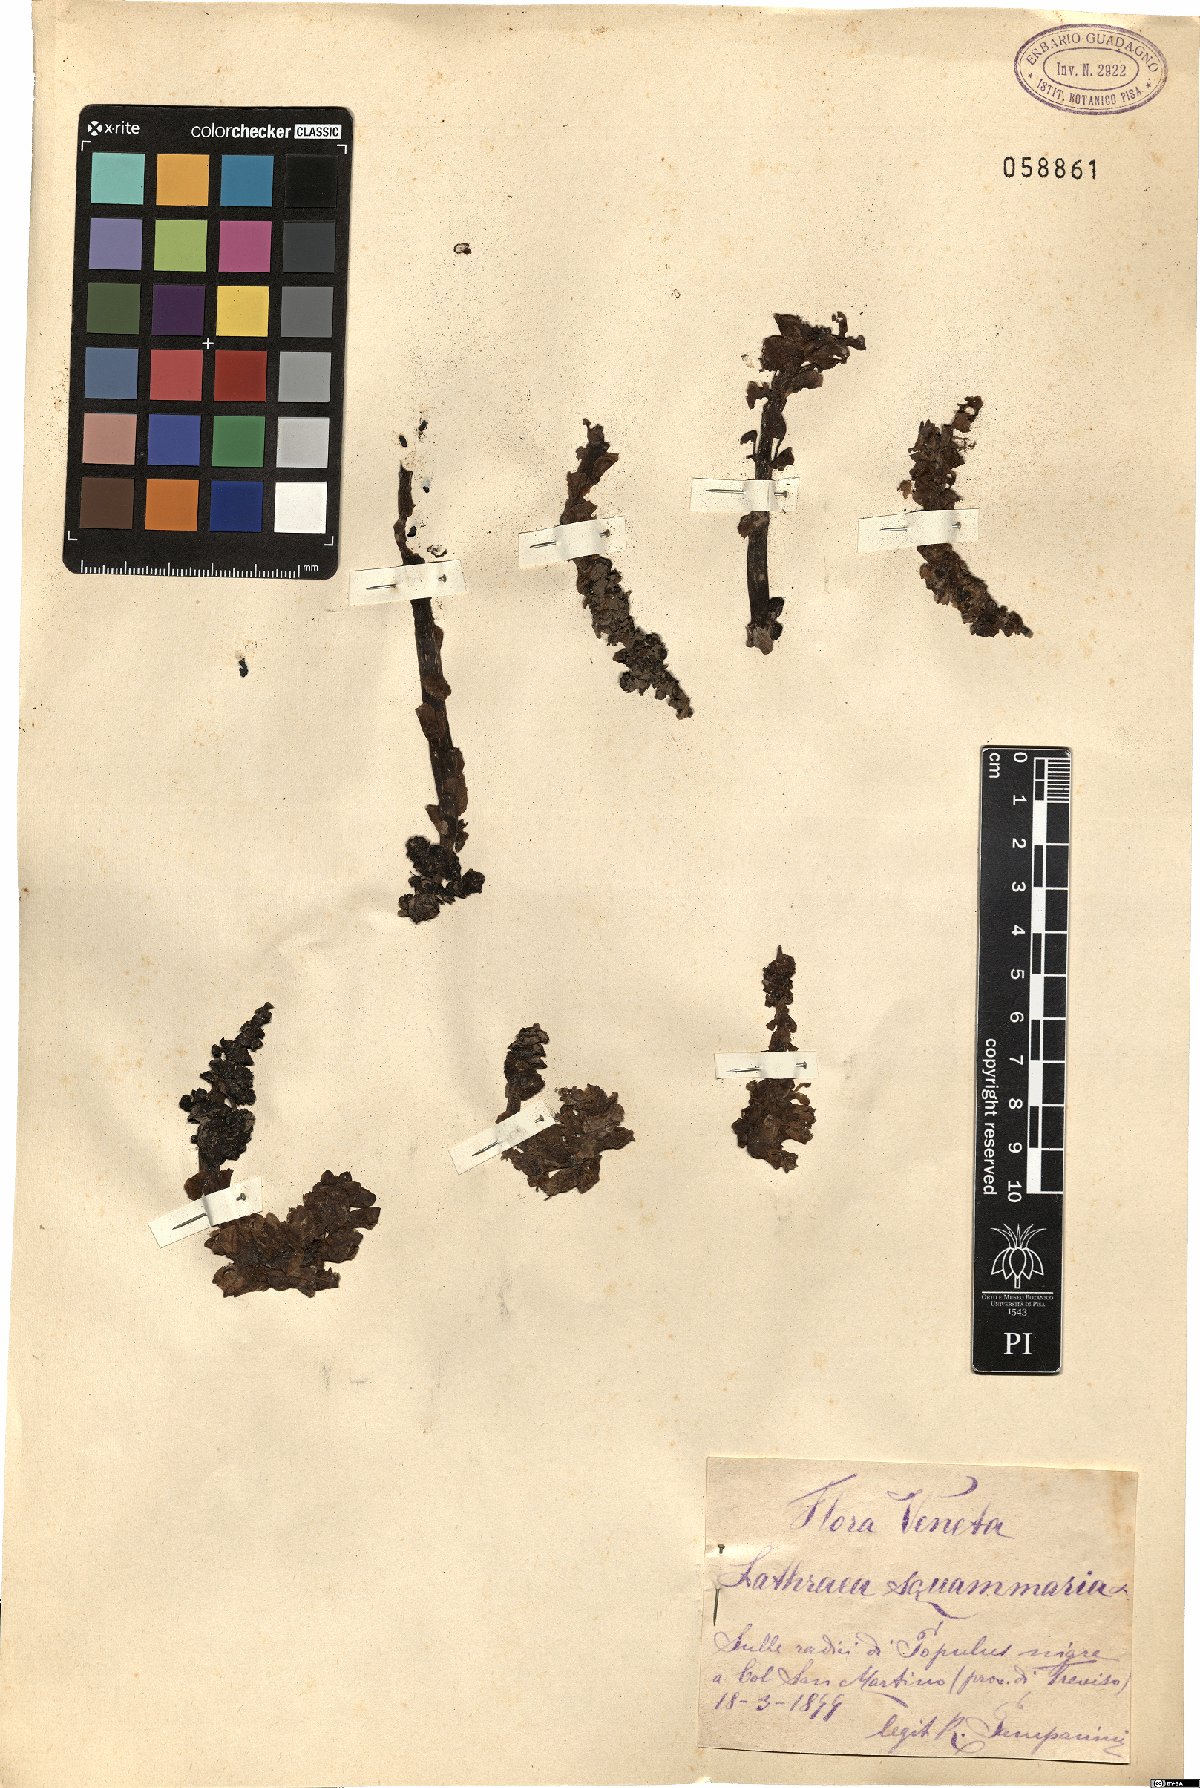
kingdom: Plantae
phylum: Tracheophyta
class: Magnoliopsida
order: Lamiales
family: Orobanchaceae
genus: Lathraea
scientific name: Lathraea squamaria
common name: Toothwort
